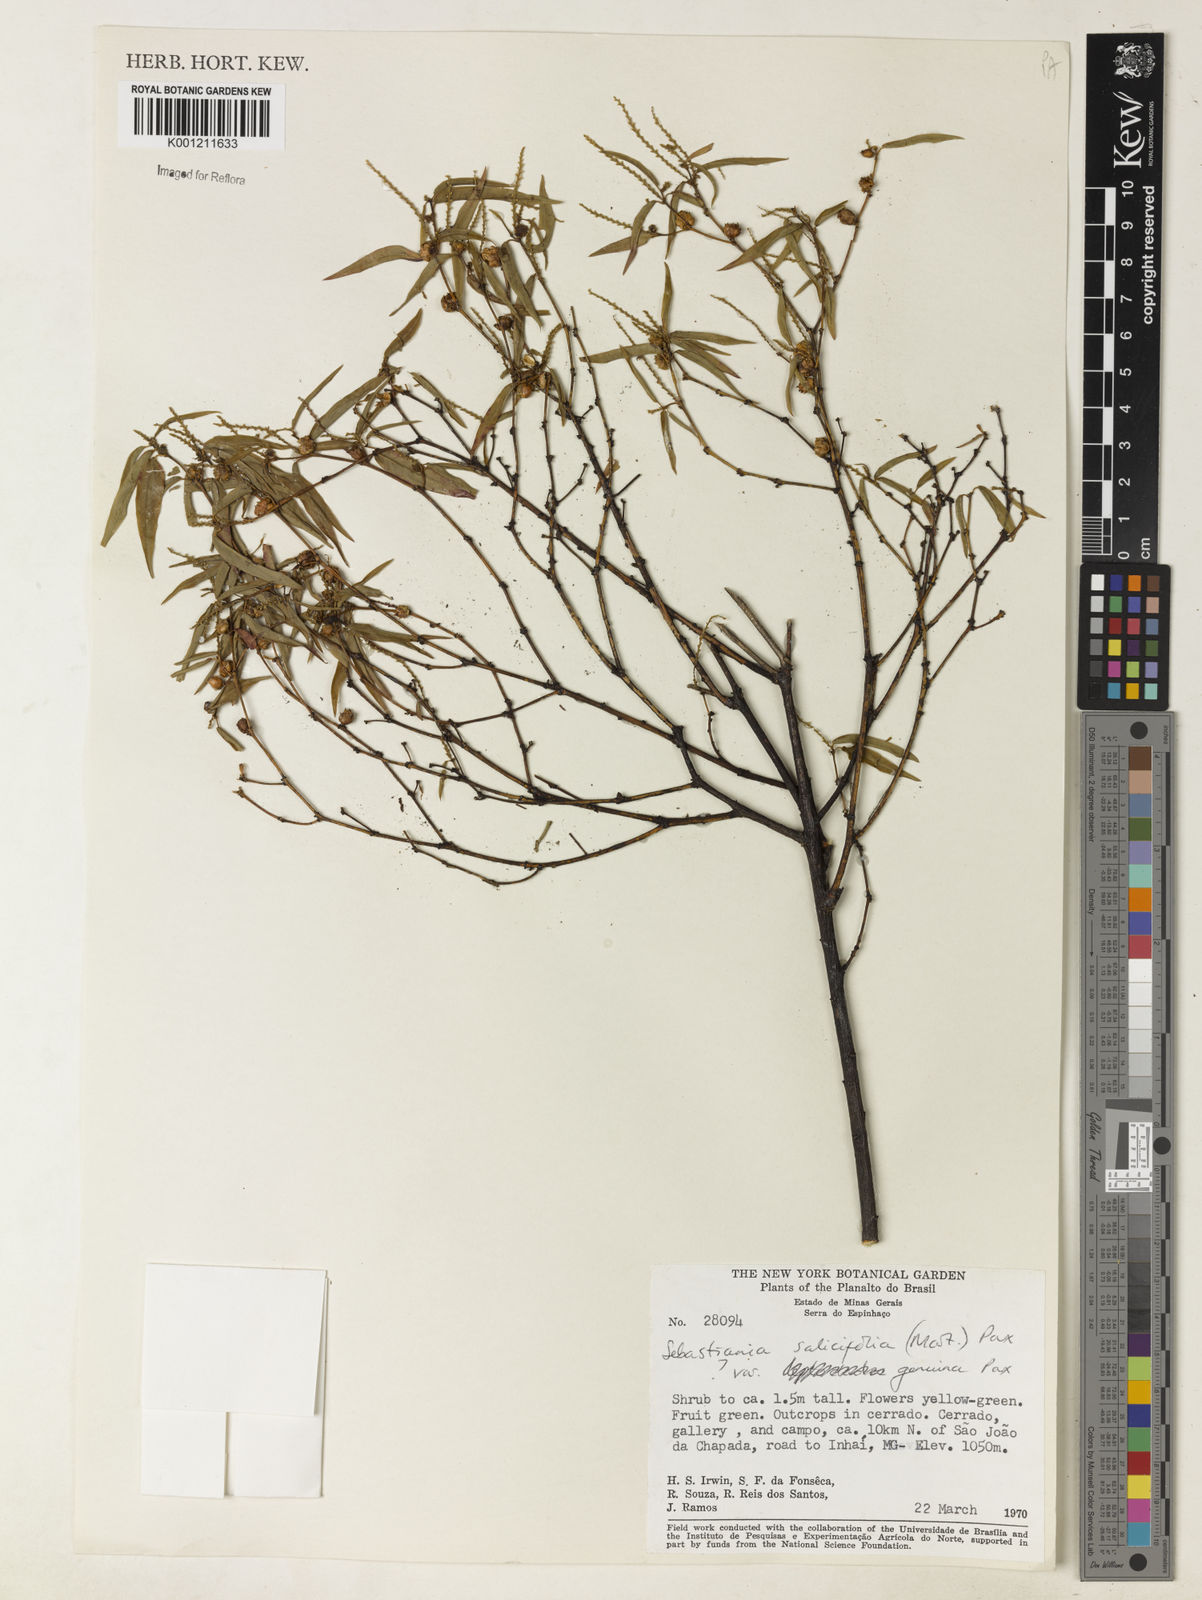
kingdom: Plantae
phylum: Tracheophyta
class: Magnoliopsida
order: Malpighiales
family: Euphorbiaceae
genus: Microstachys
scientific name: Microstachys
